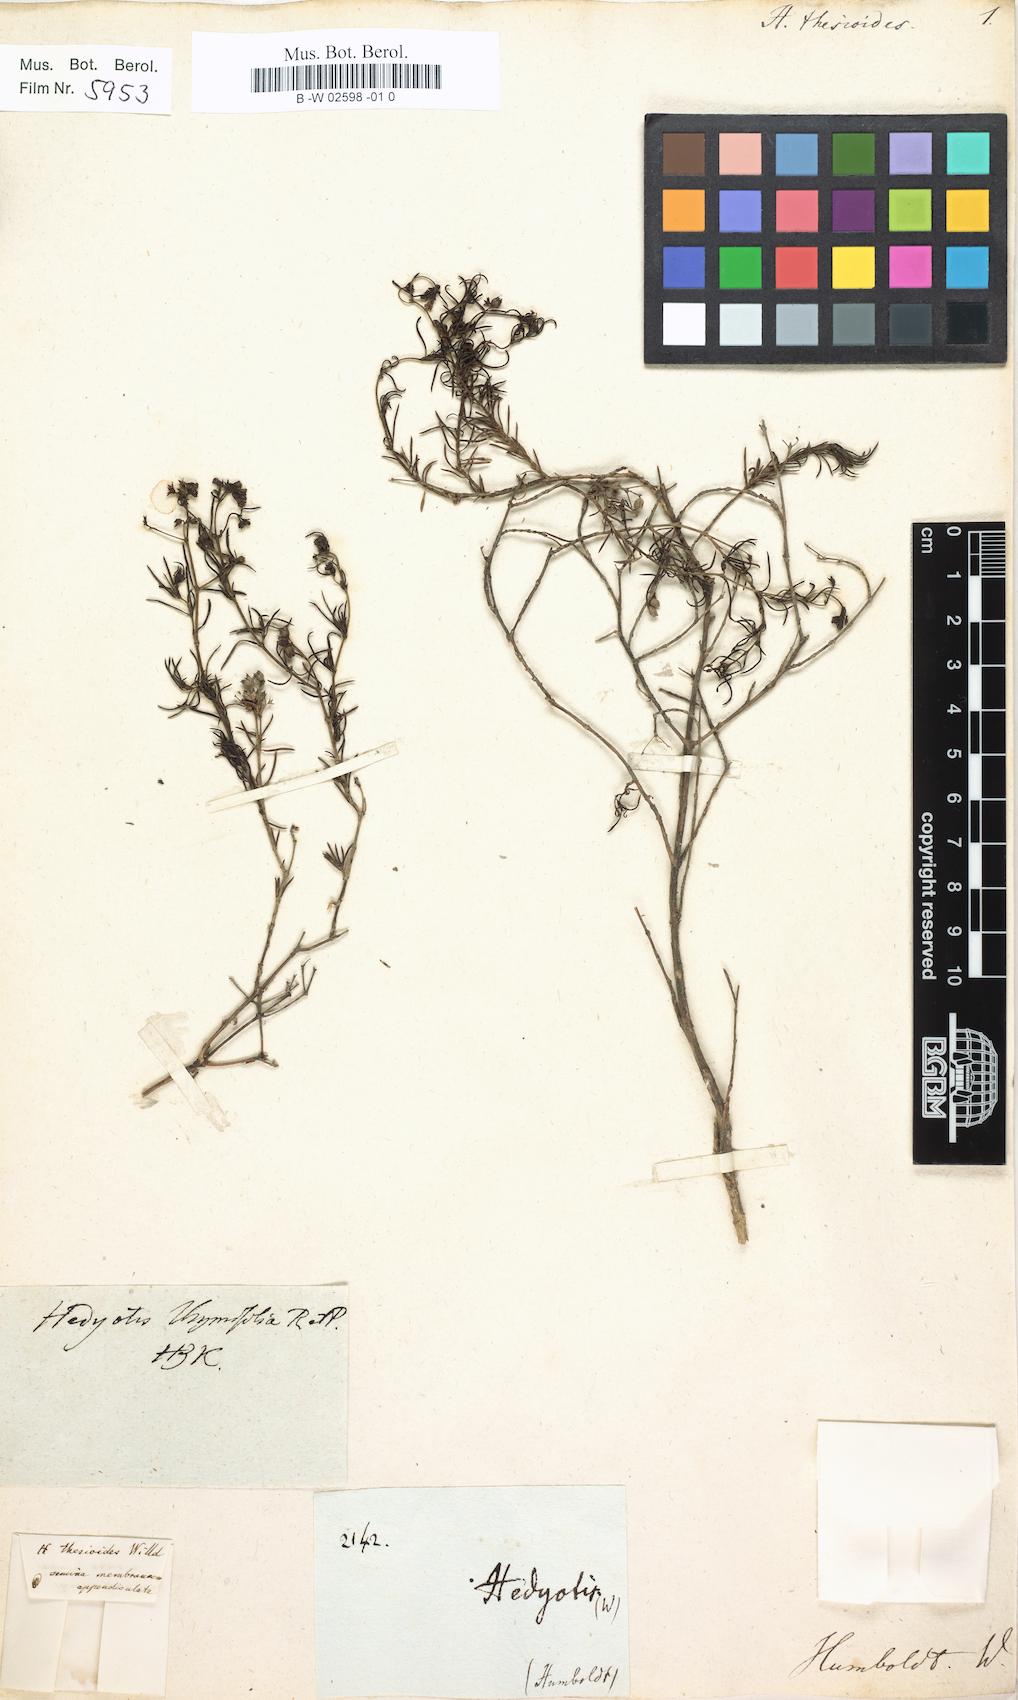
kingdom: Plantae
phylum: Tracheophyta
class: Magnoliopsida
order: Gentianales
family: Rubiaceae
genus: Arcytophyllum
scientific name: Arcytophyllum thymifolium
